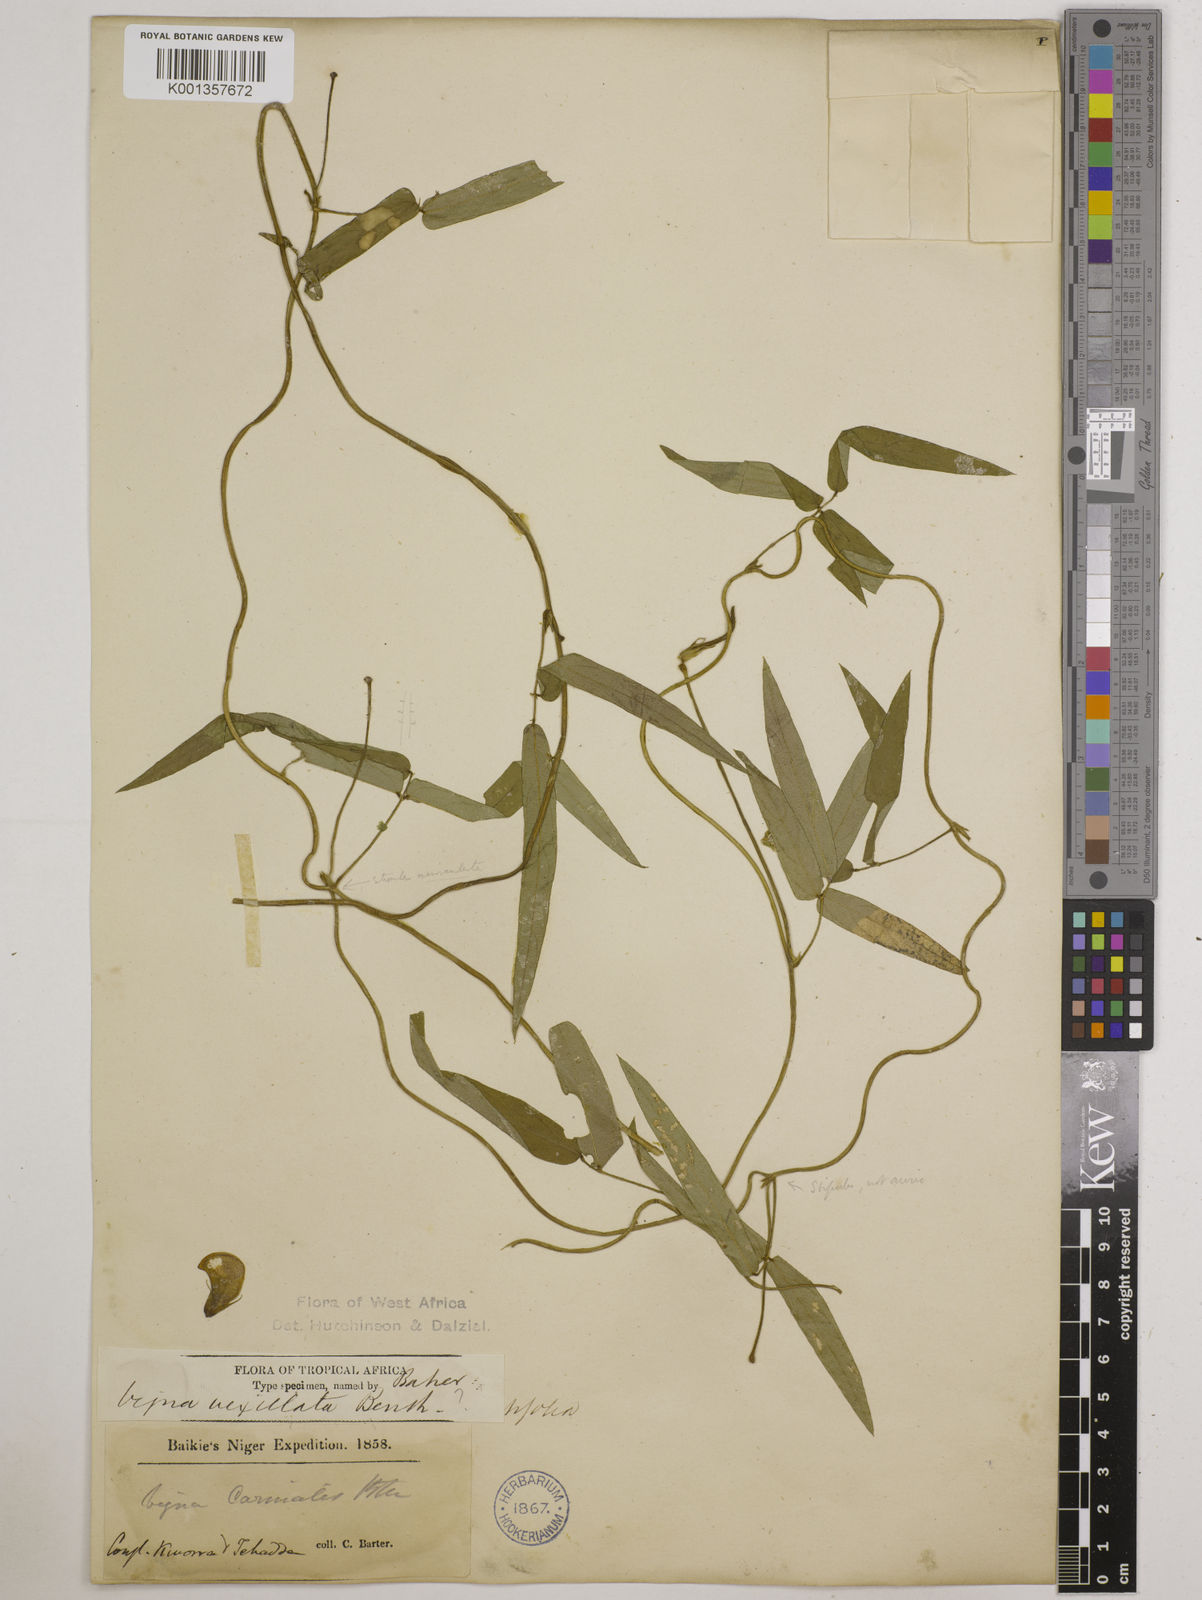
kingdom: Plantae
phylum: Tracheophyta
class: Magnoliopsida
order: Fabales
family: Fabaceae
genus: Vigna
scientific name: Vigna vexillata
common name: Zombi pea
